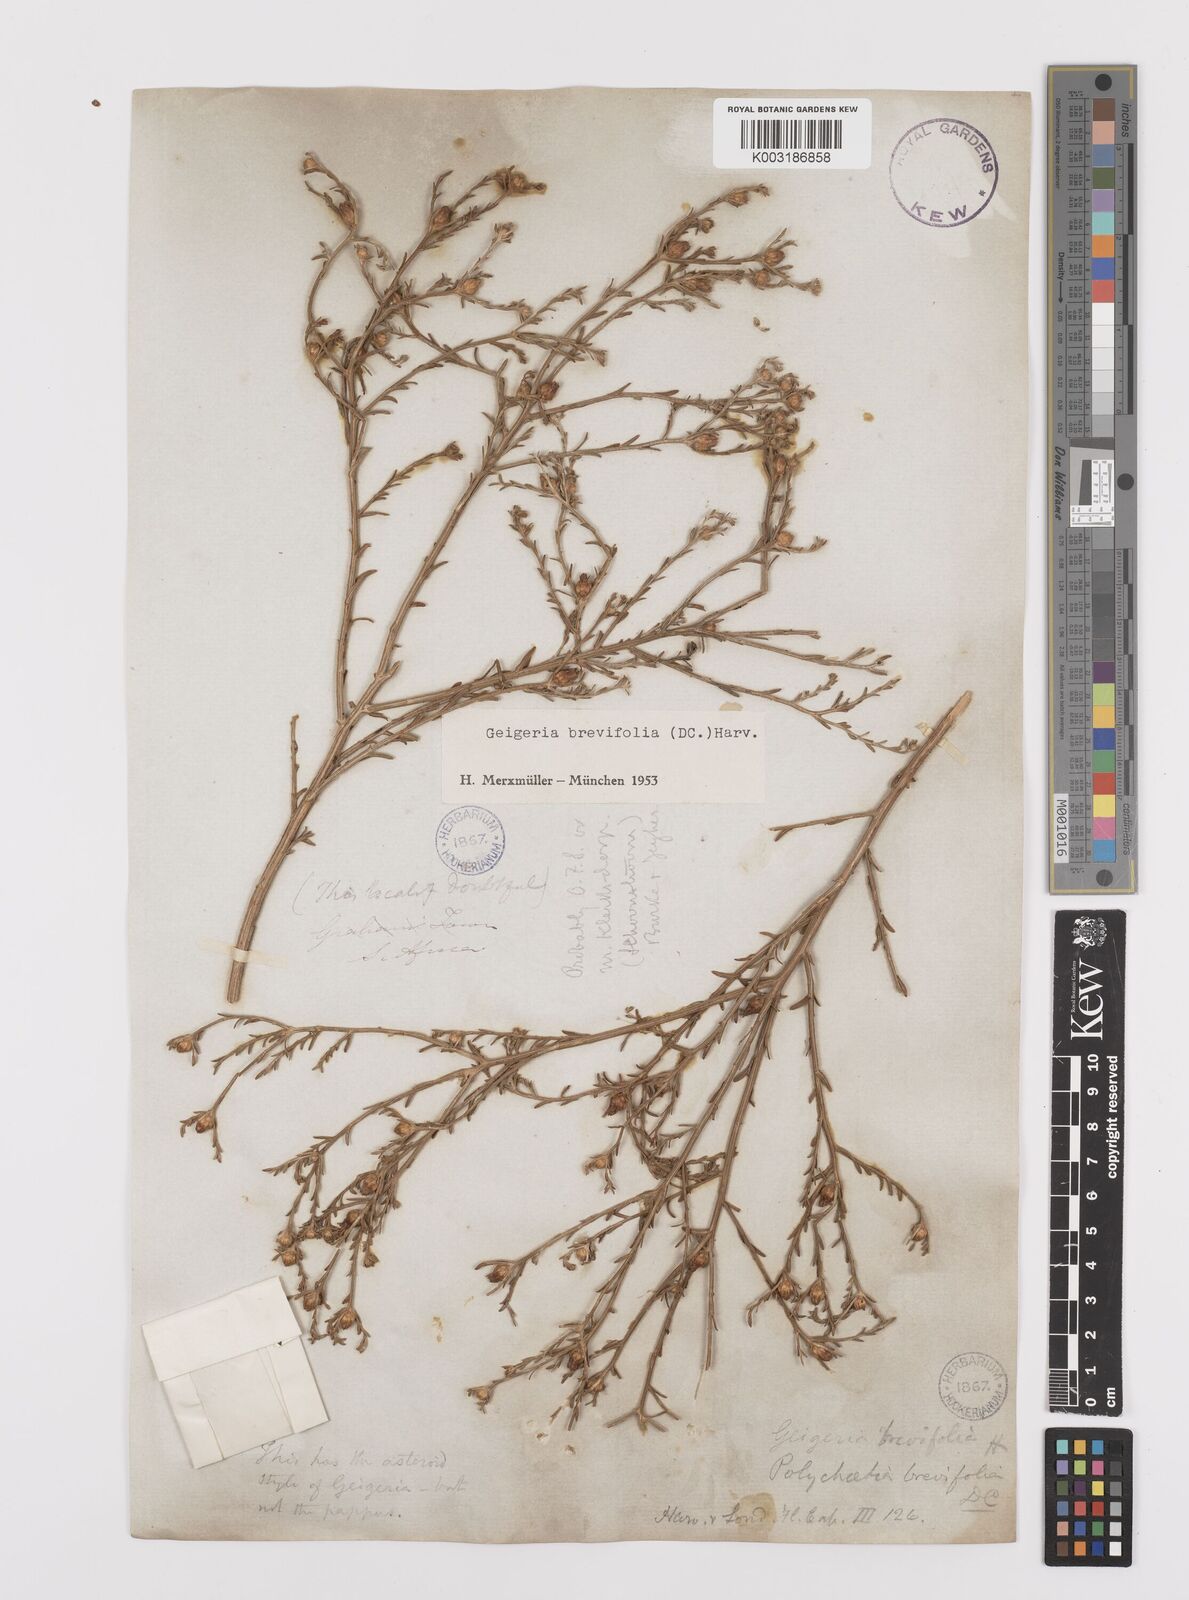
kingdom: Plantae
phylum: Tracheophyta
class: Magnoliopsida
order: Asterales
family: Asteraceae
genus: Geigeria
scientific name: Geigeria brevifolia
